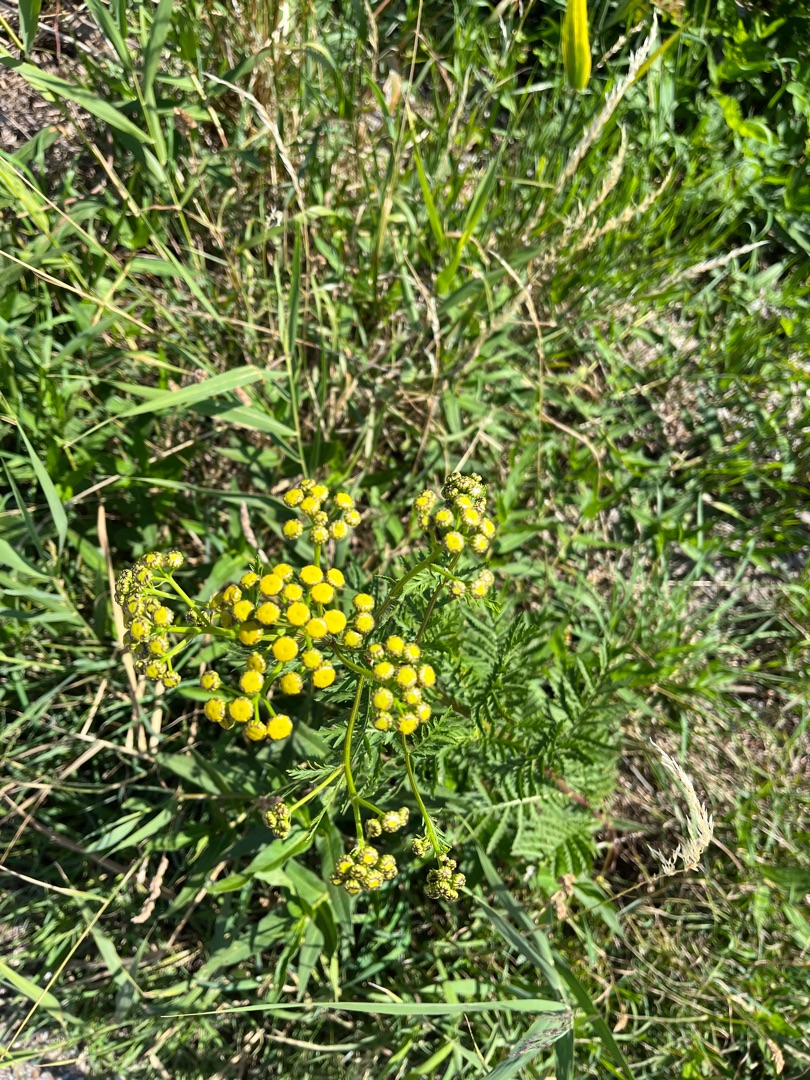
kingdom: Plantae
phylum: Tracheophyta
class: Magnoliopsida
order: Asterales
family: Asteraceae
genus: Tanacetum
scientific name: Tanacetum vulgare
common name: Rejnfan
